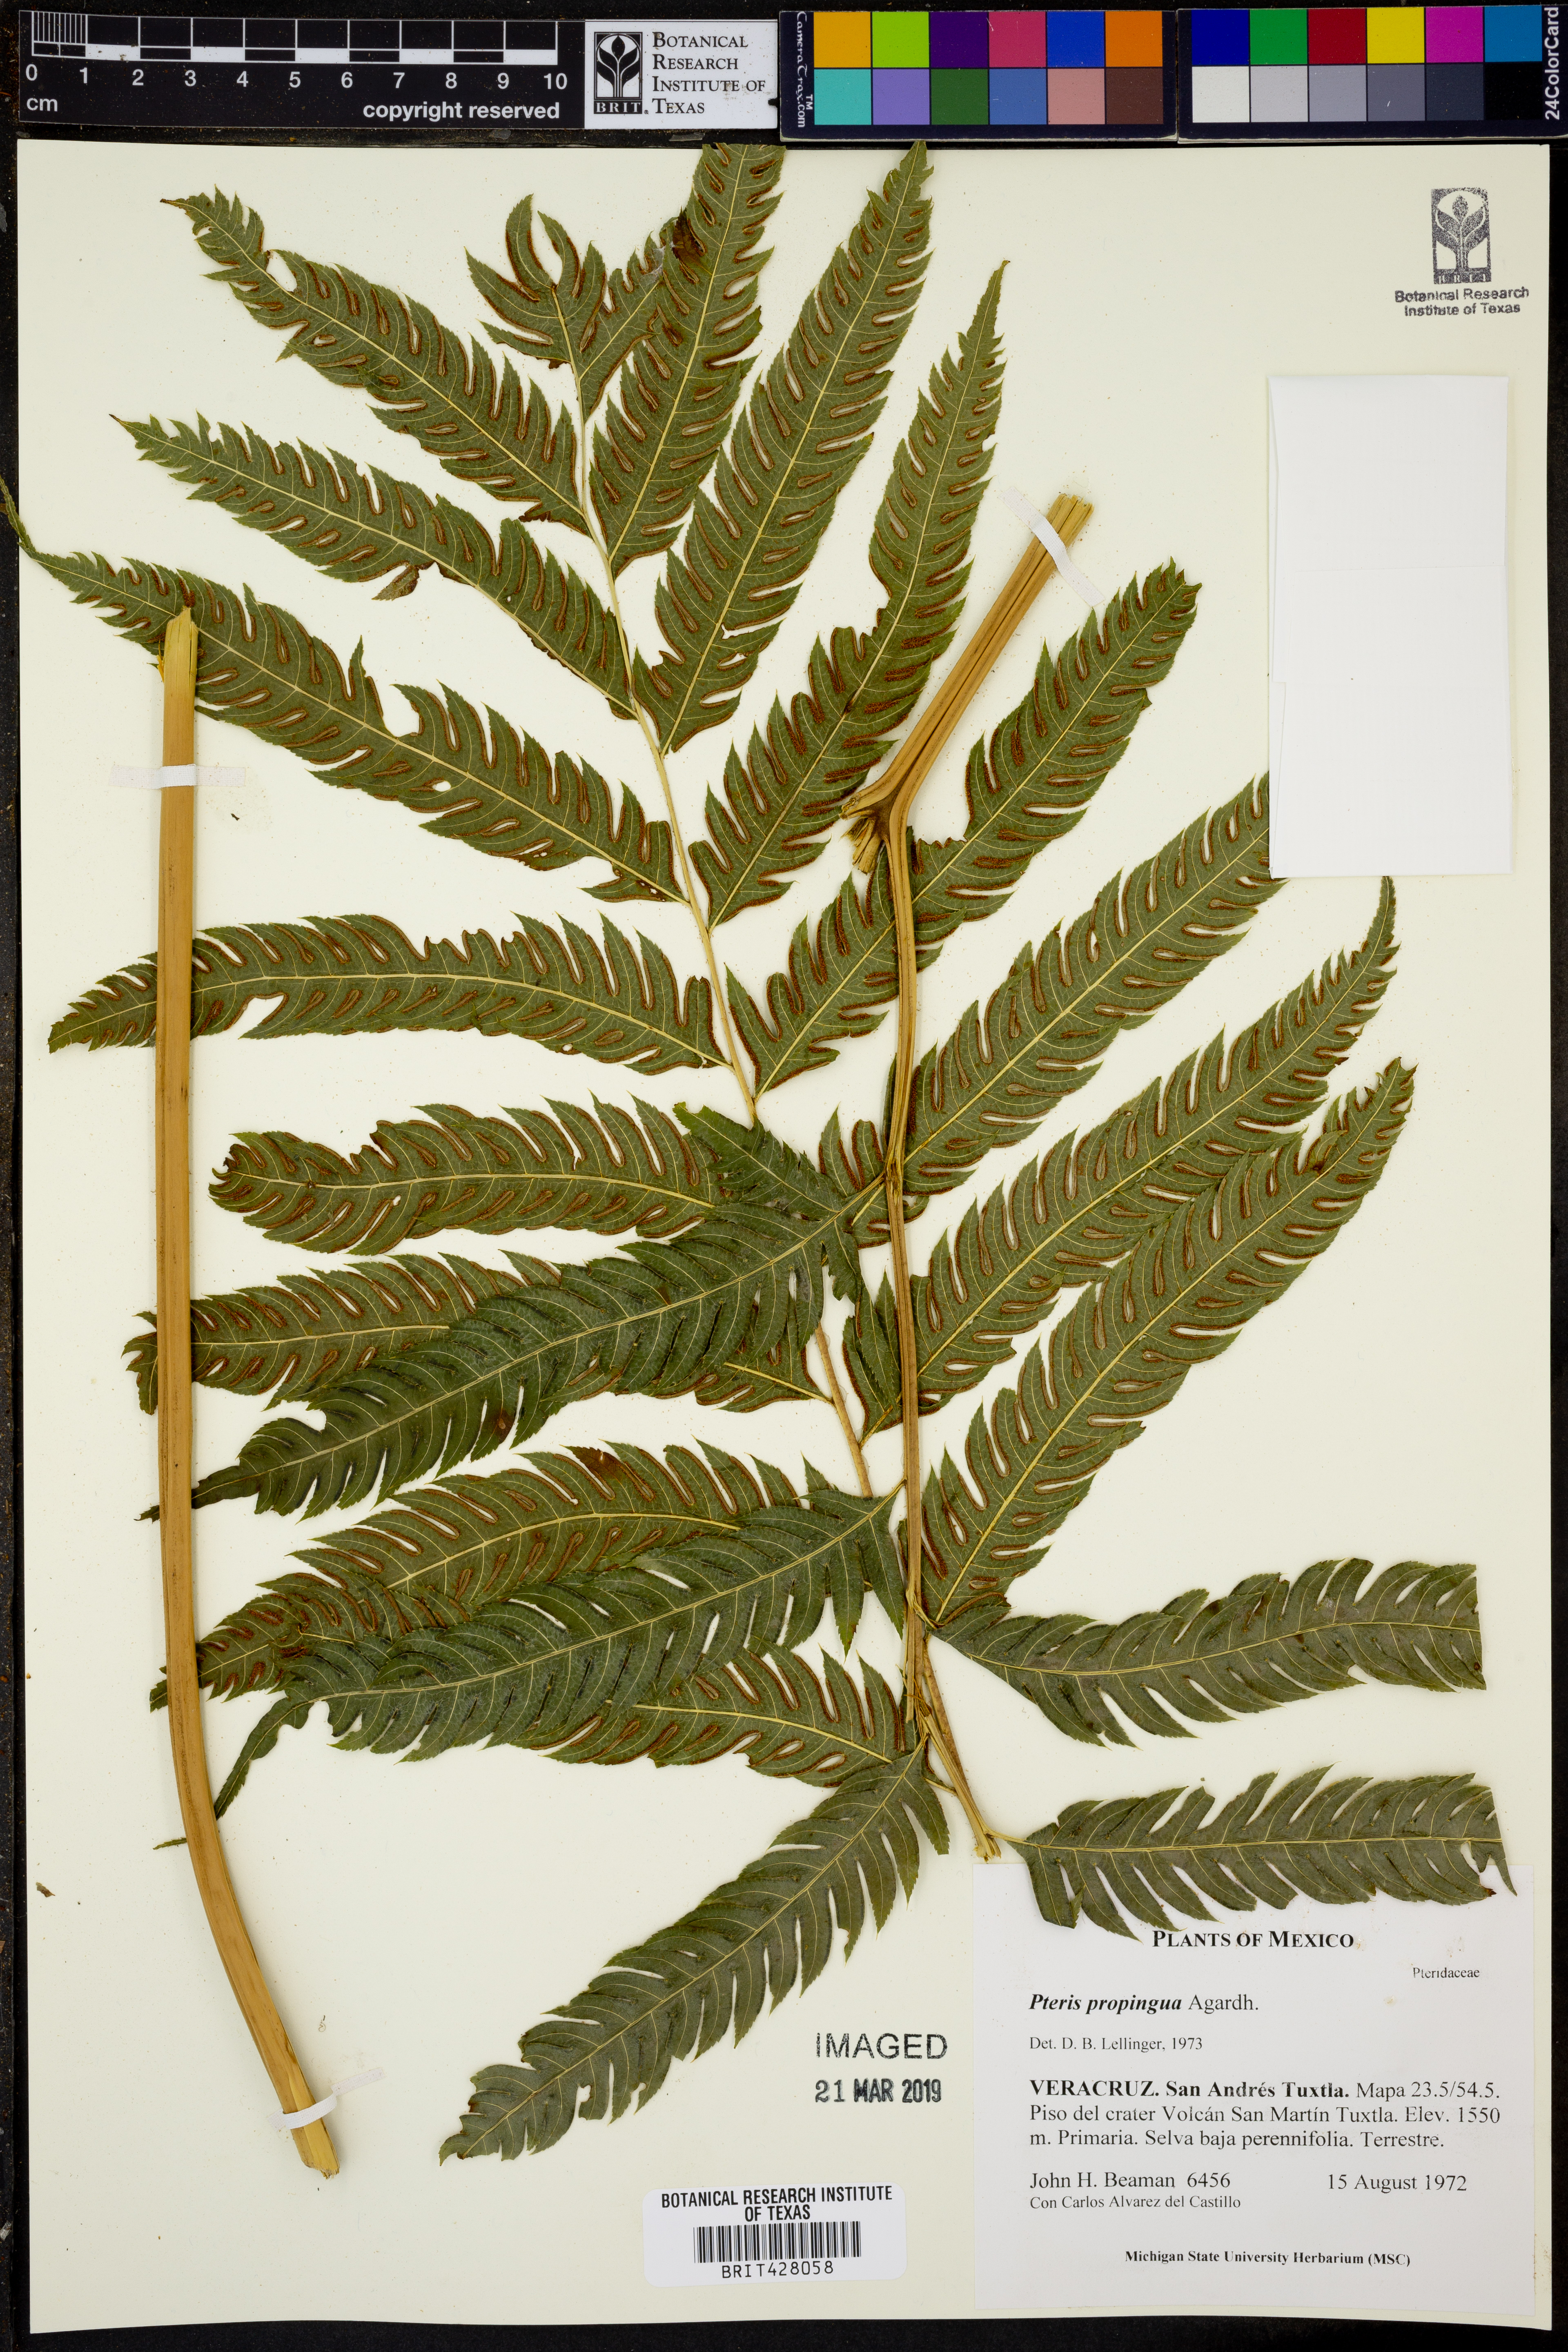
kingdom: Plantae
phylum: Tracheophyta
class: Polypodiopsida
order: Polypodiales
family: Pteridaceae
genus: Pteris
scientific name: Pteris heteromorpha
